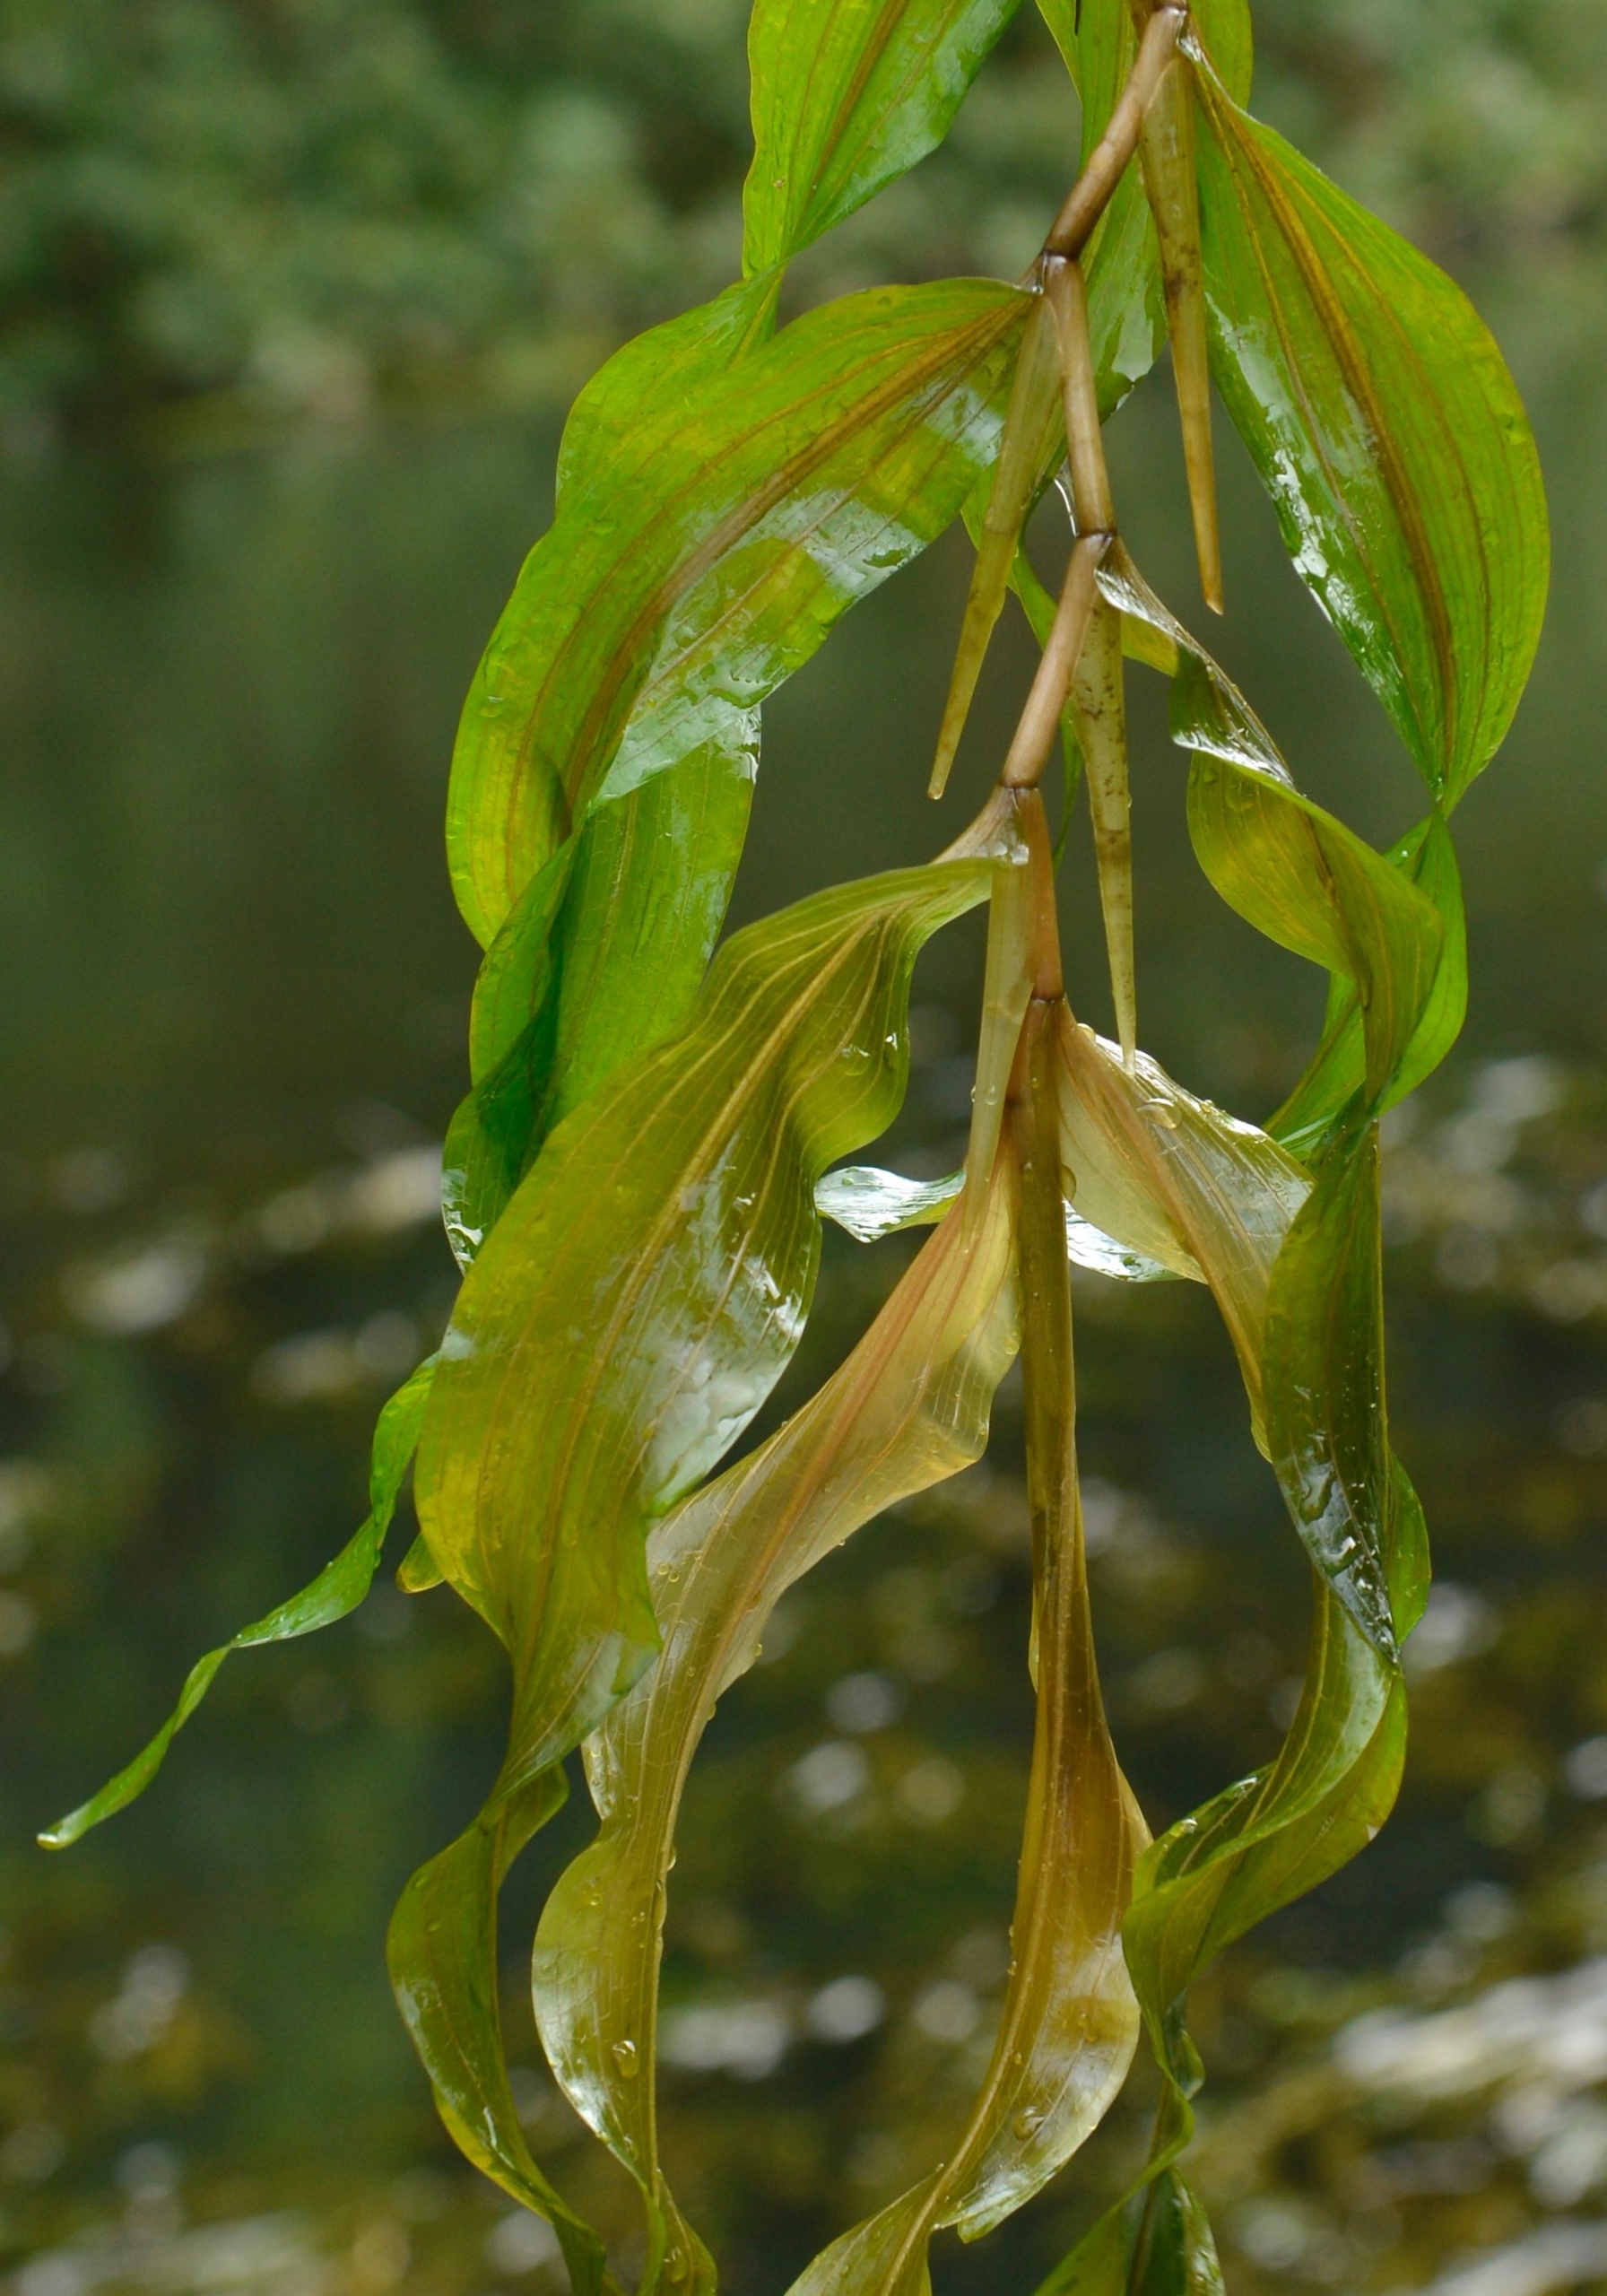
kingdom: Plantae
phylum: Tracheophyta
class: Liliopsida
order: Alismatales
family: Potamogetonaceae
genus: Potamogeton
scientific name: Potamogeton praelongus
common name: Langbladet vandaks
